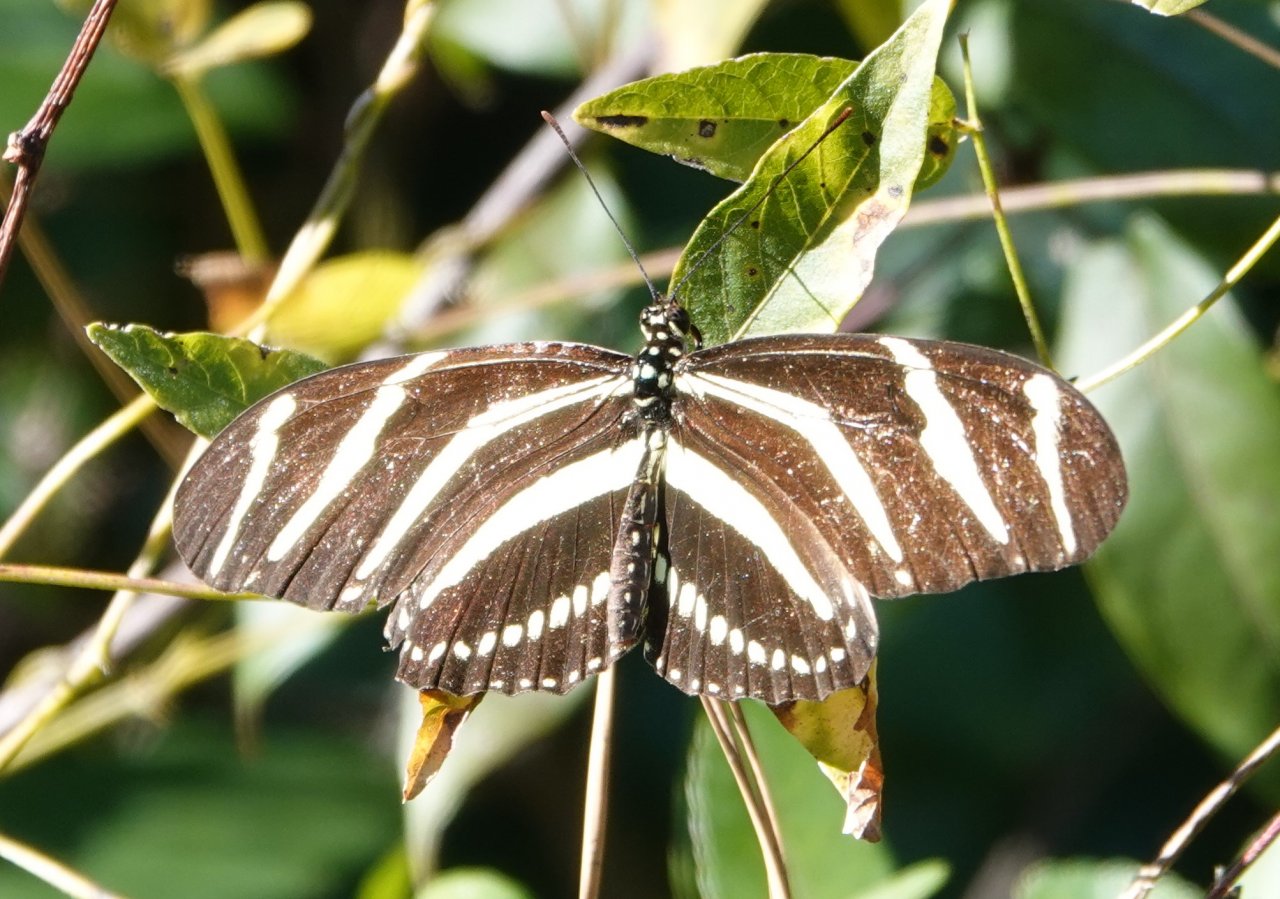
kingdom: Animalia
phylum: Arthropoda
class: Insecta
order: Lepidoptera
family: Nymphalidae
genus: Heliconius
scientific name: Heliconius charithonia
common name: Zebra Longwing
